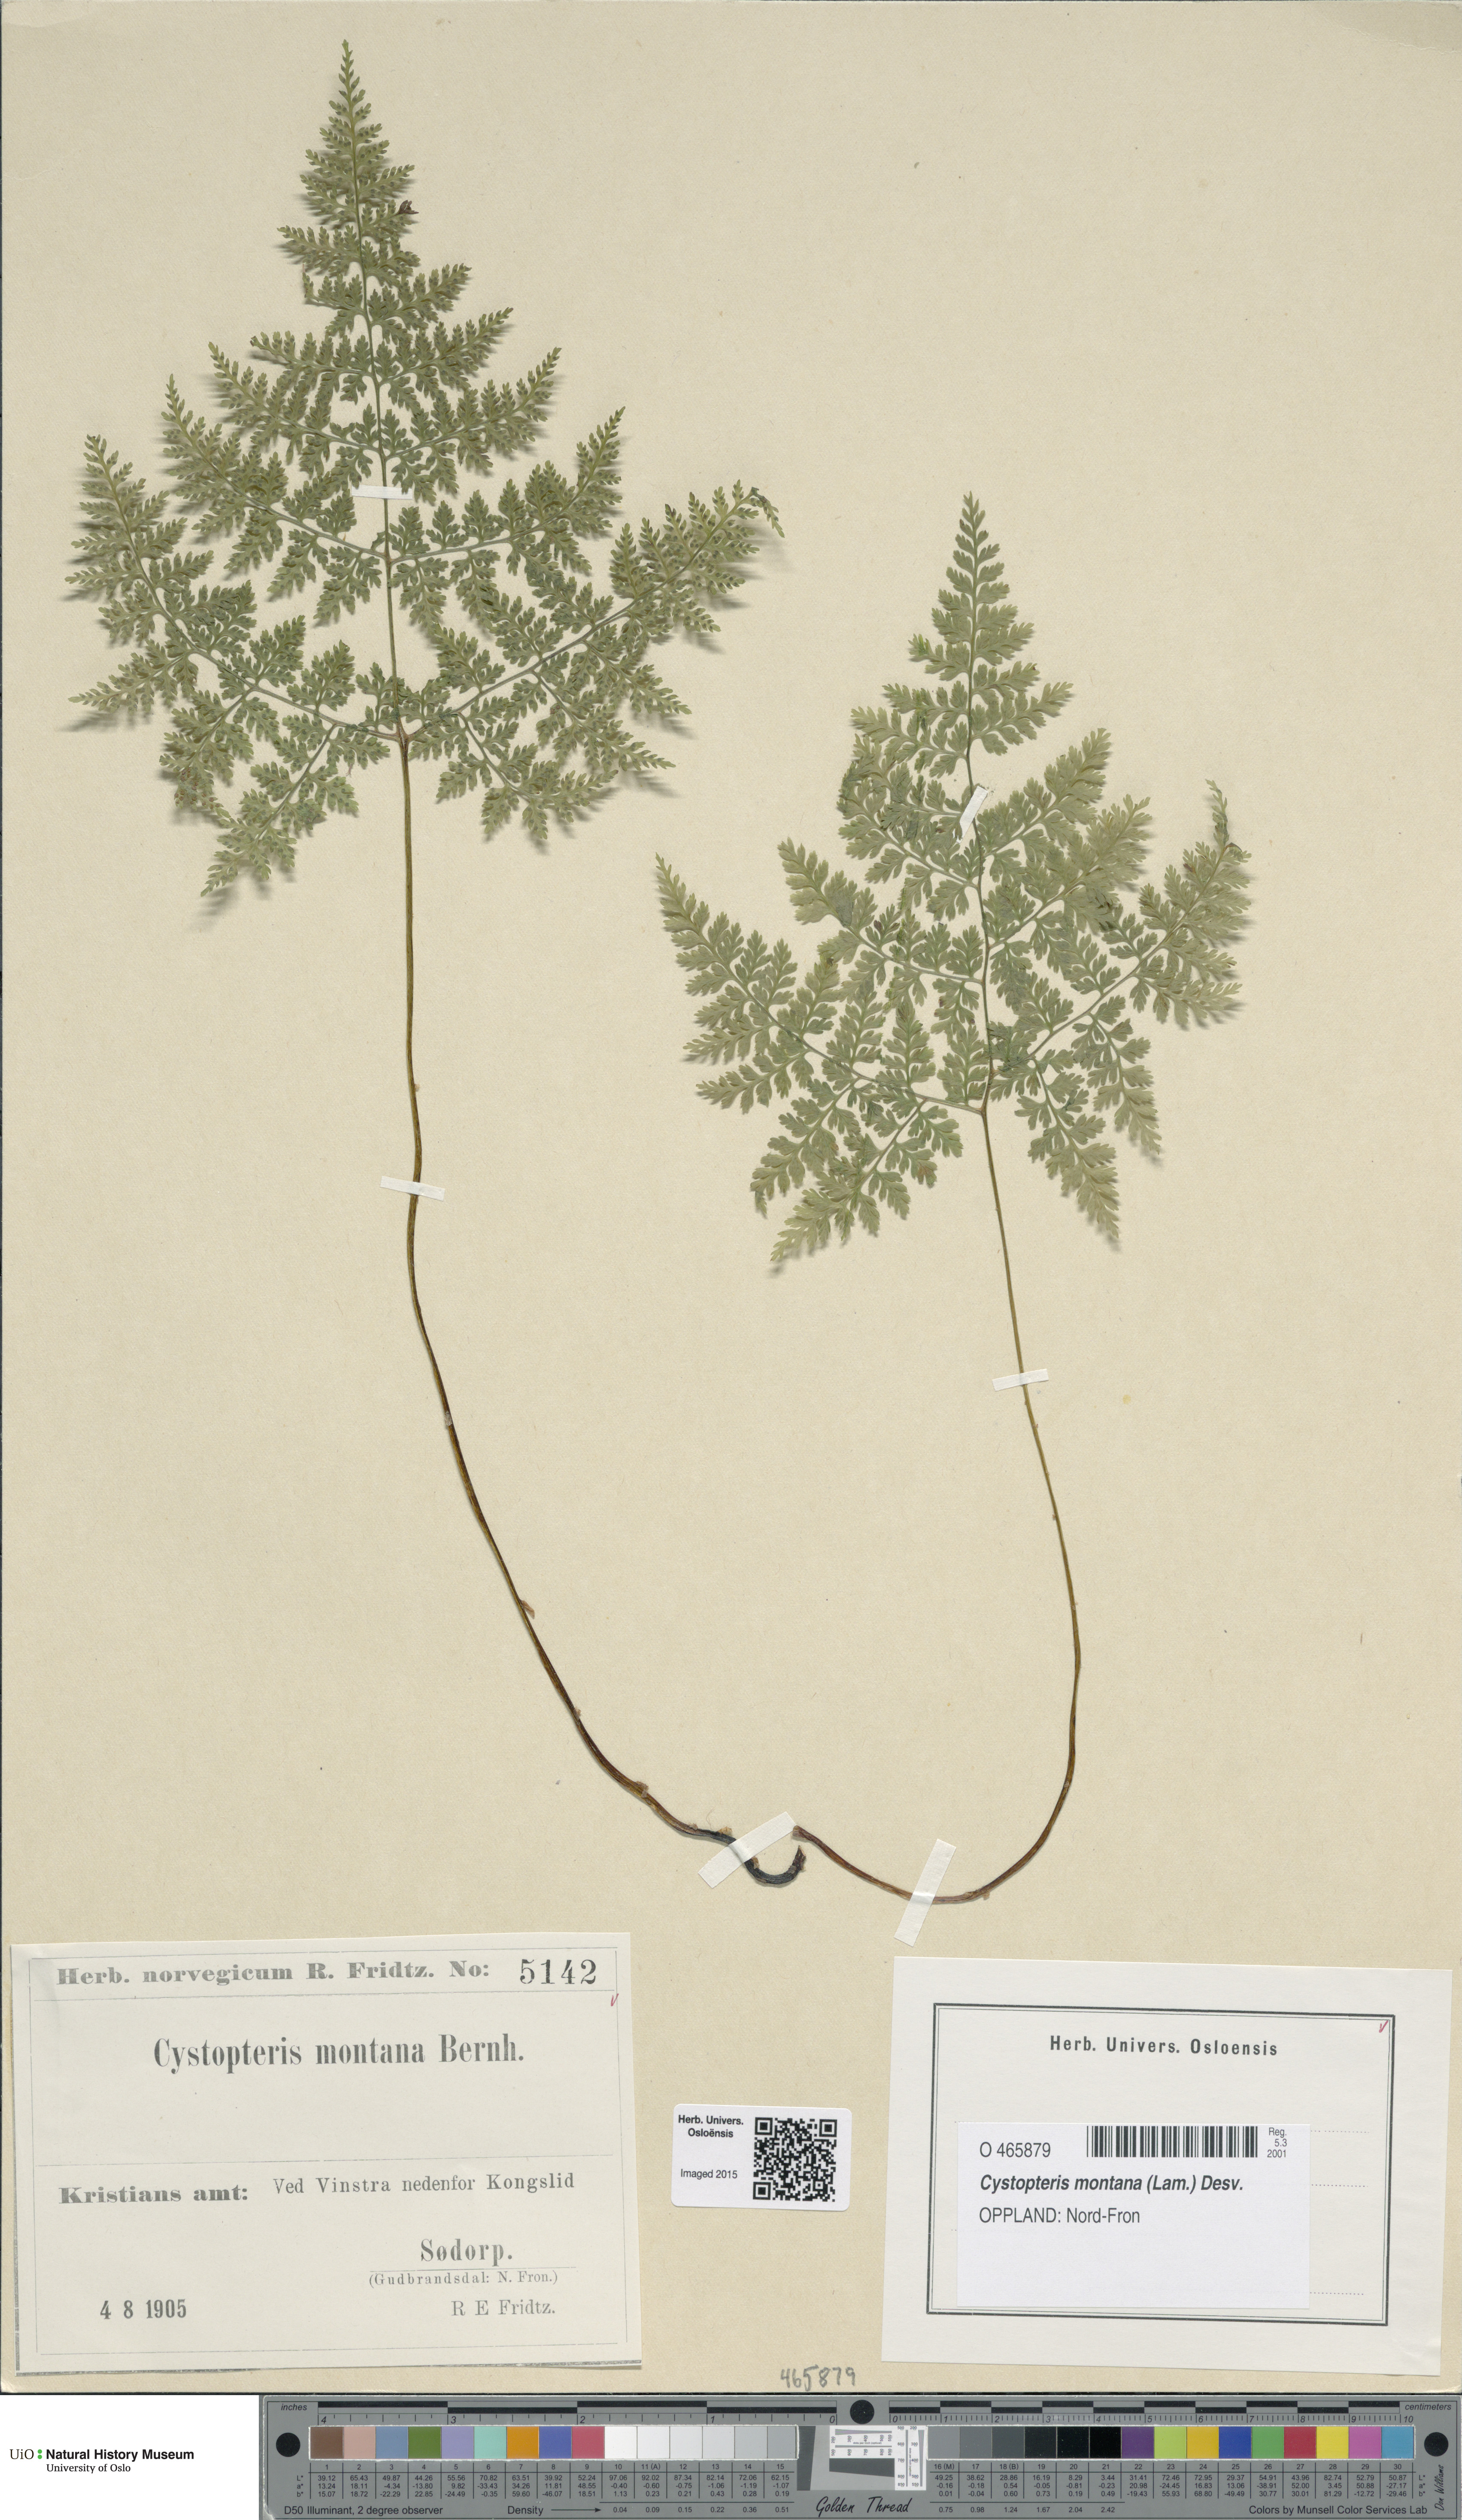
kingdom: Plantae
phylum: Tracheophyta
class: Polypodiopsida
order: Polypodiales
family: Cystopteridaceae
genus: Cystopteris
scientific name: Cystopteris montana
